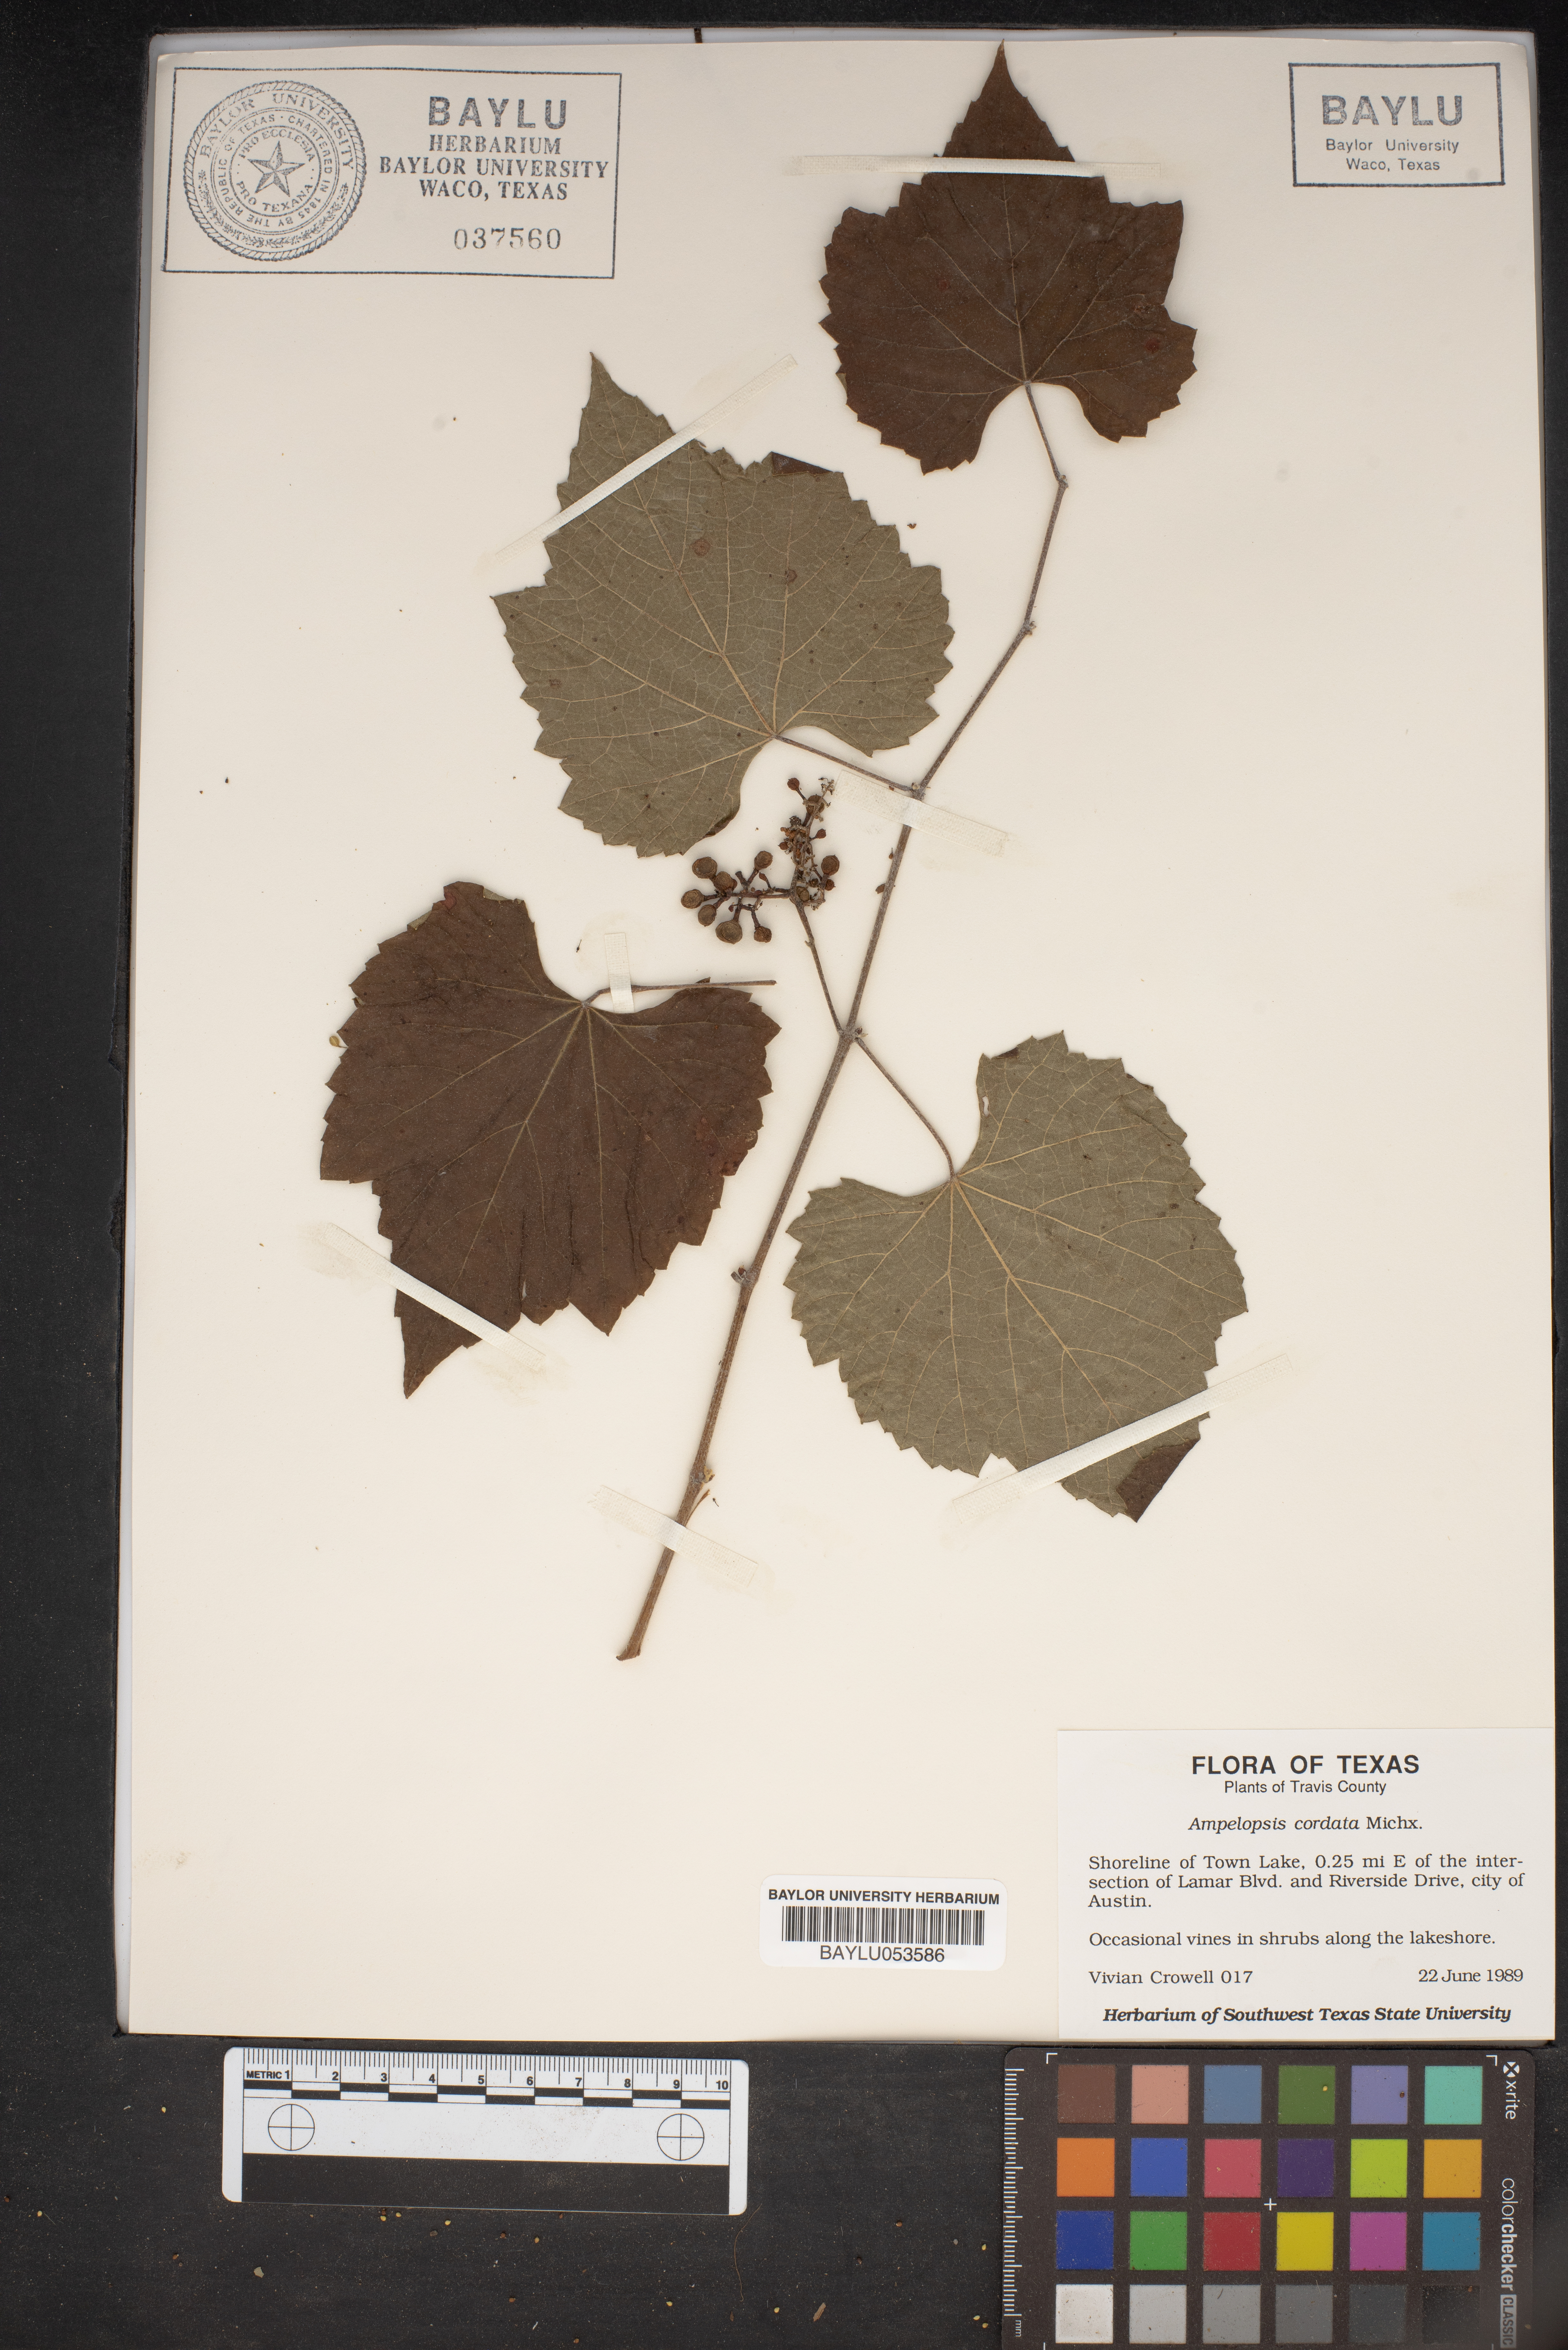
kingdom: Plantae
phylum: Tracheophyta
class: Magnoliopsida
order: Vitales
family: Vitaceae
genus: Ampelopsis
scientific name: Ampelopsis cordata
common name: Heart-leaf ampelopsis
